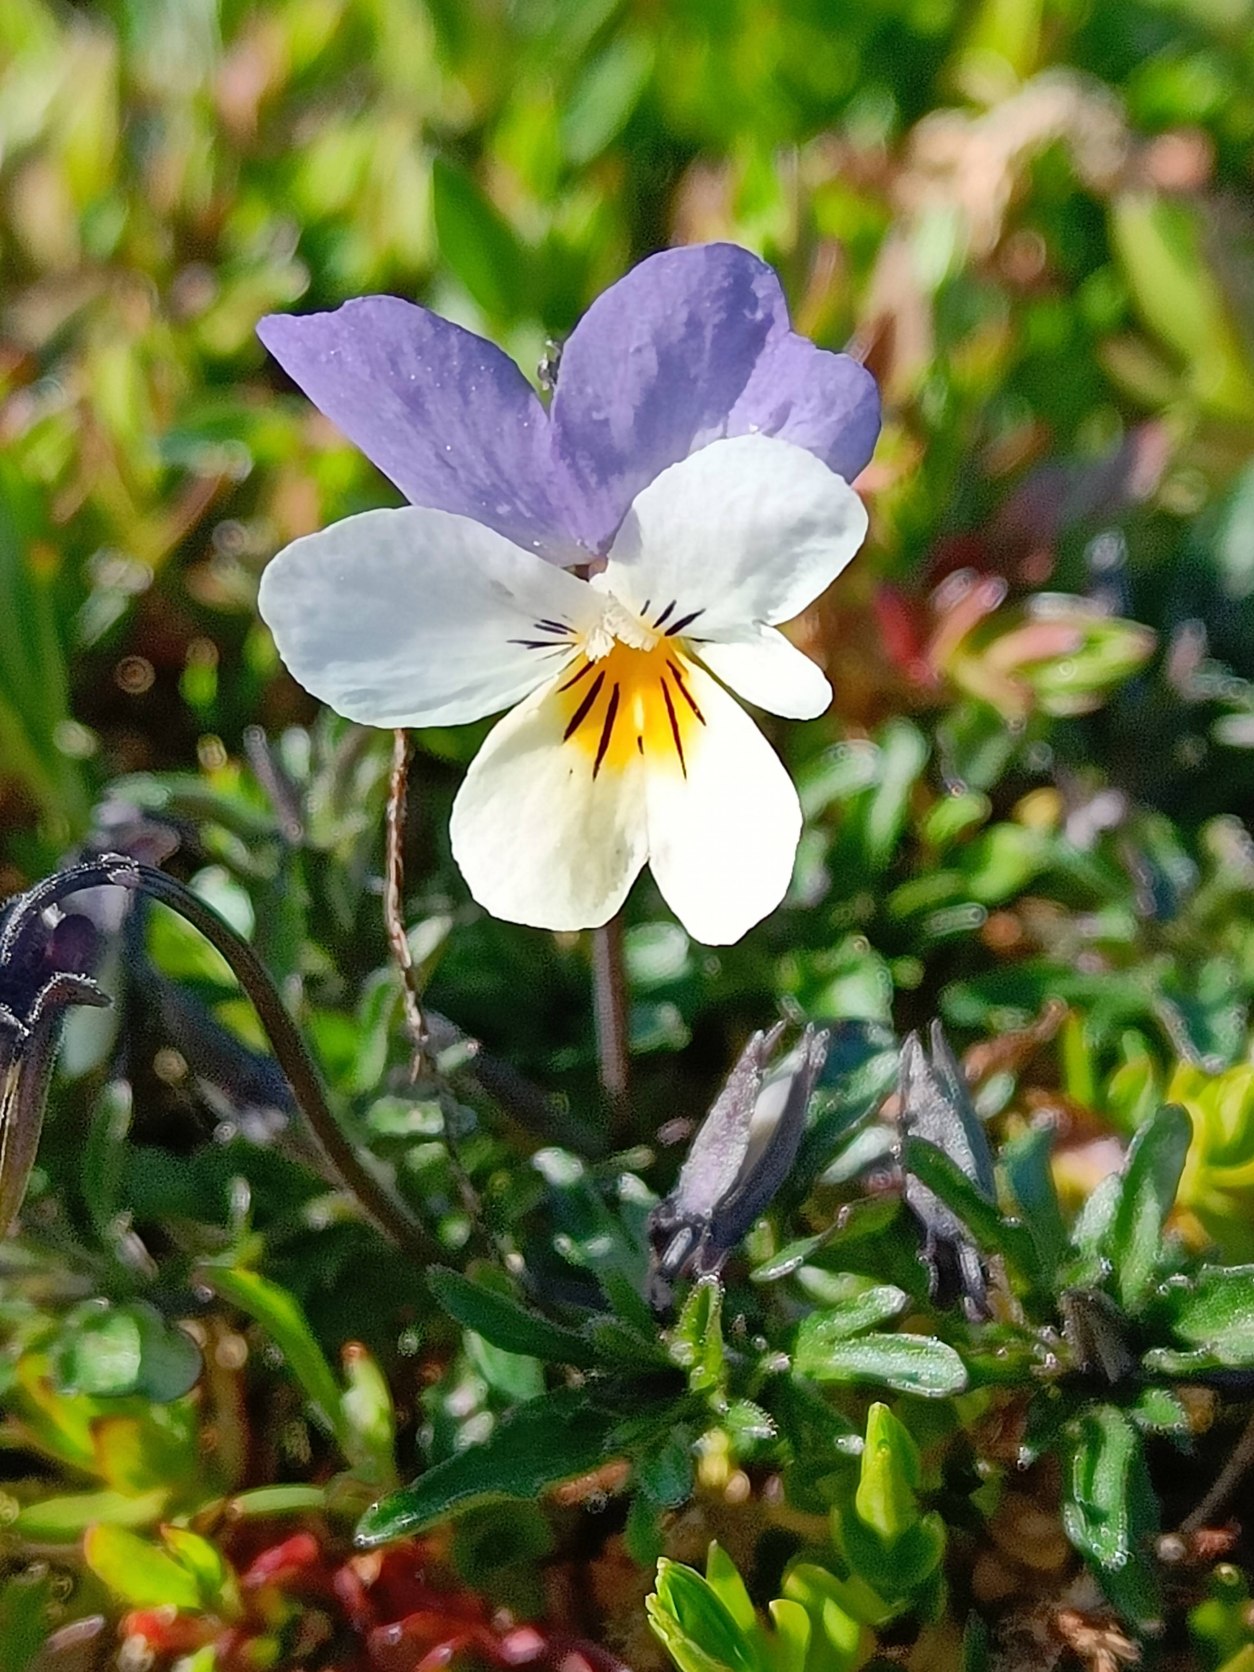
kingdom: Plantae
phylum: Tracheophyta
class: Magnoliopsida
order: Malpighiales
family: Violaceae
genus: Viola
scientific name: Viola tricolor
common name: Almindelig stedmoderblomst
